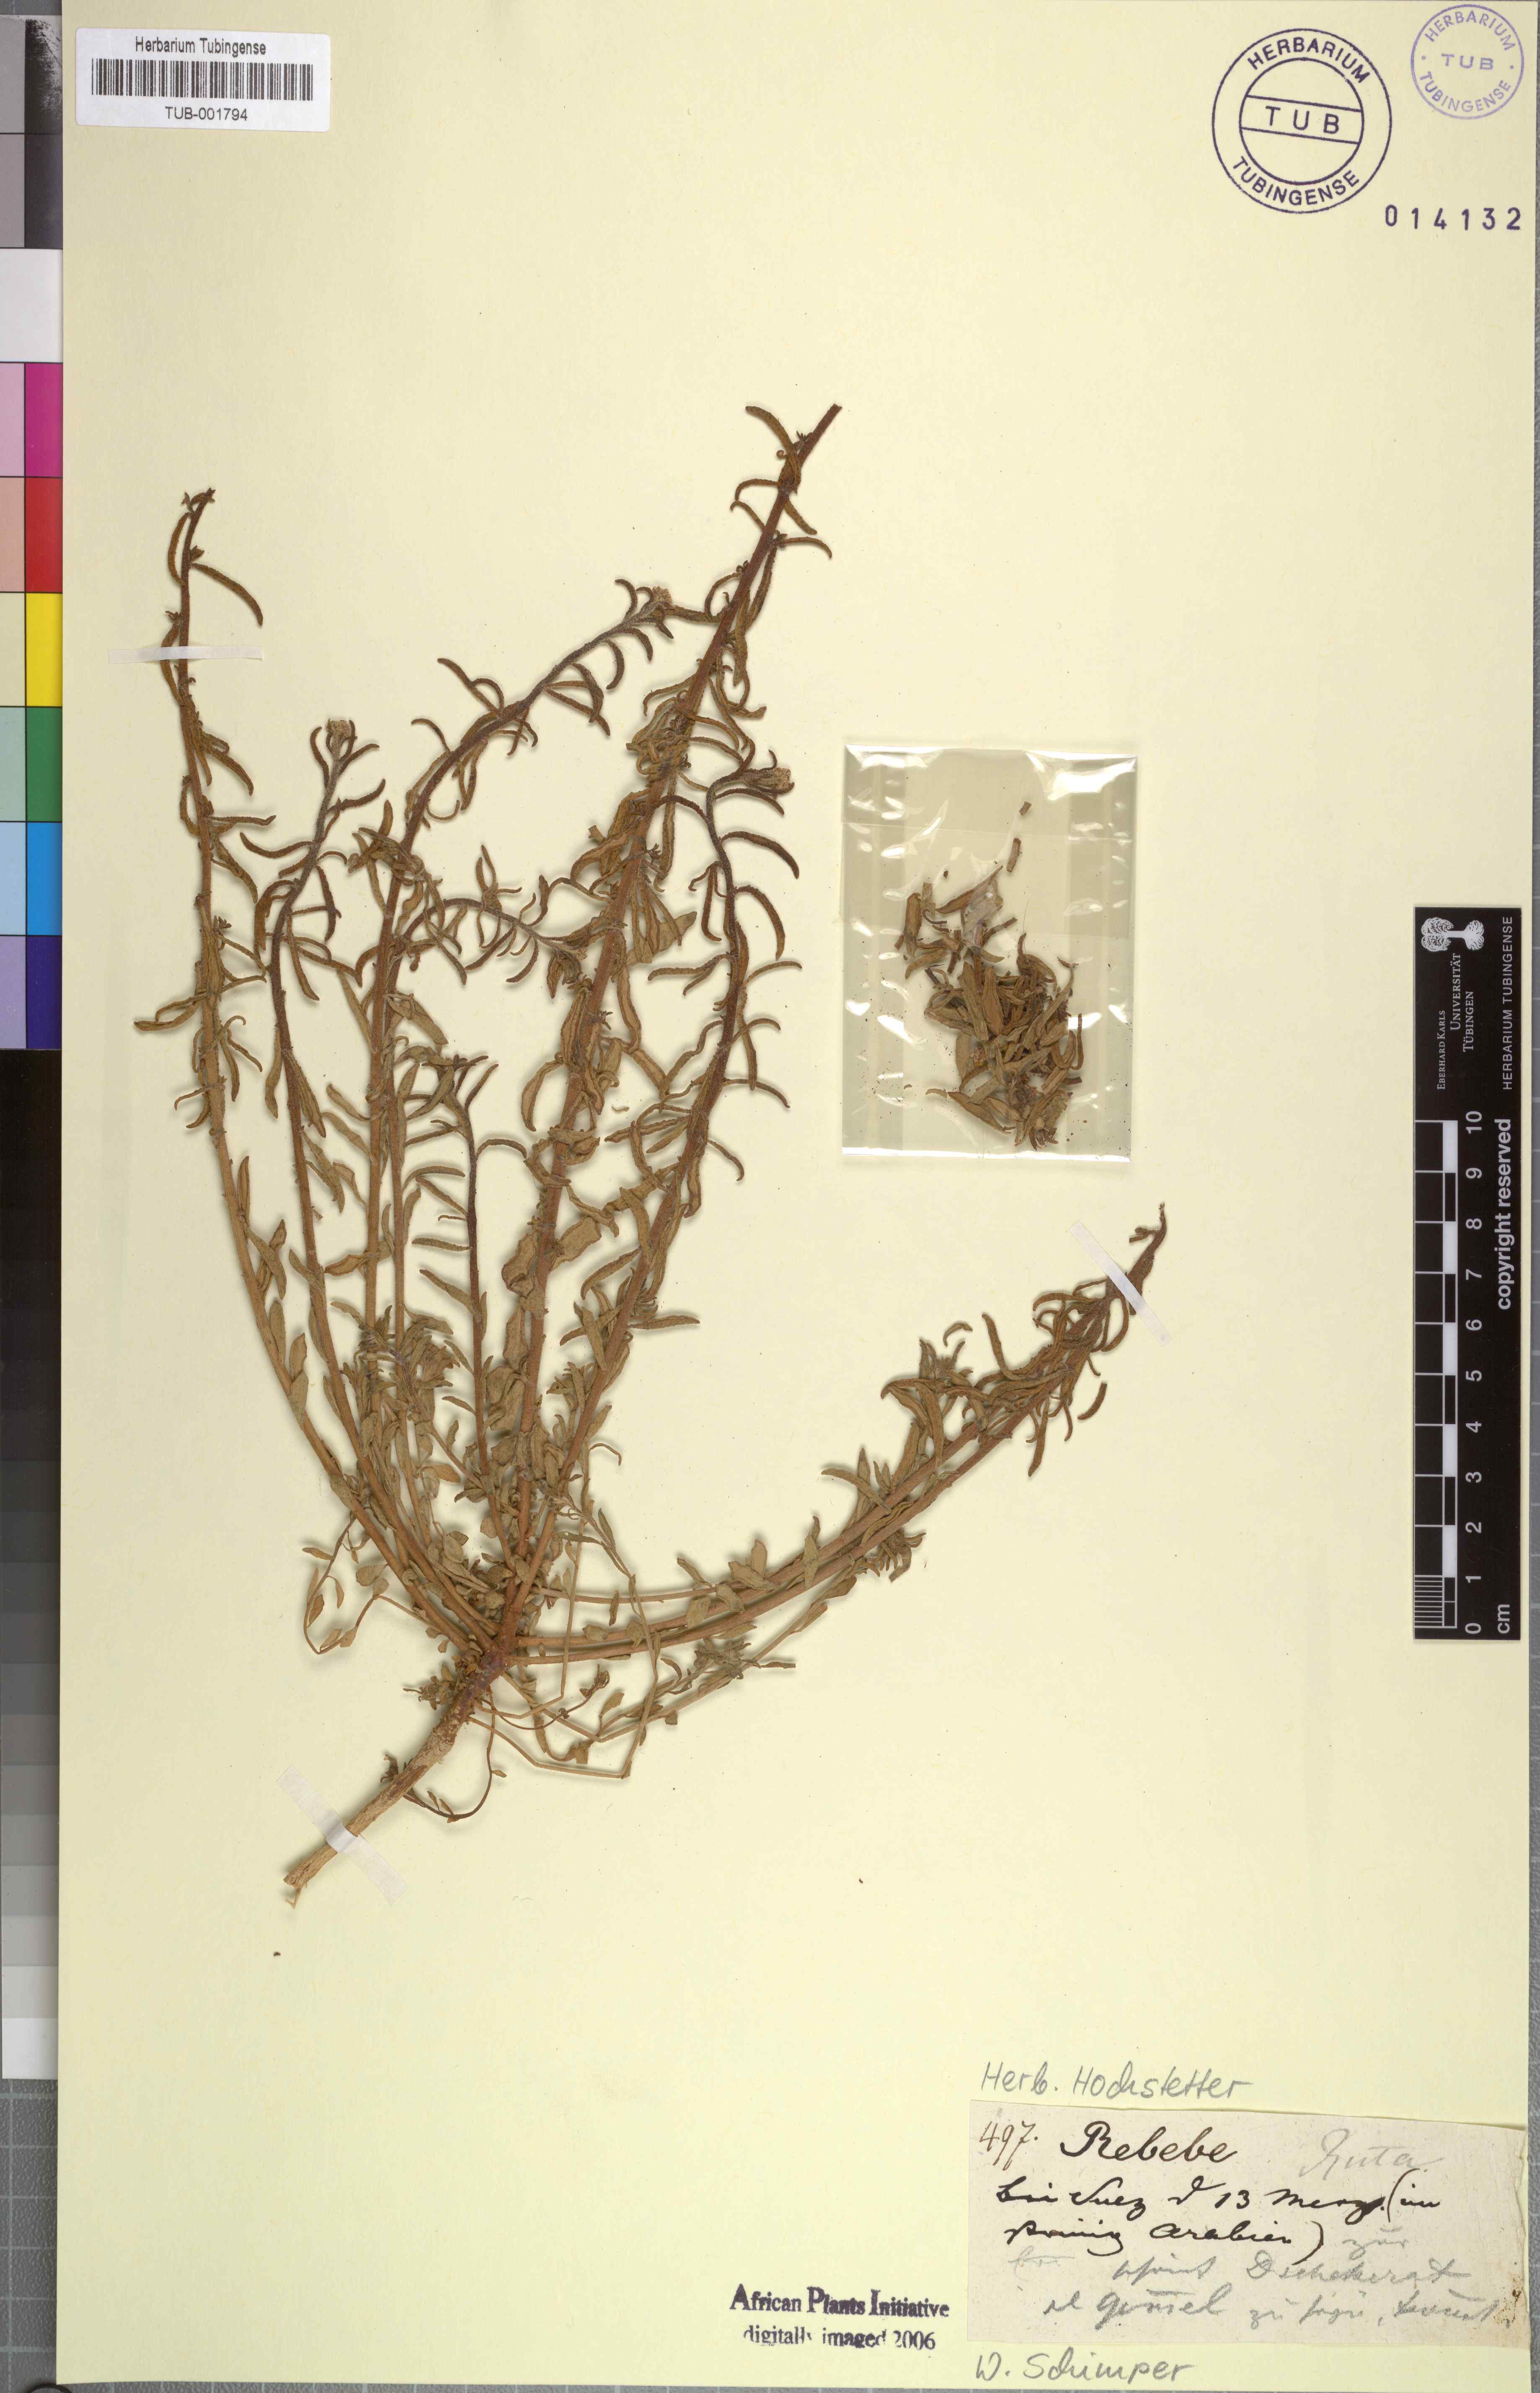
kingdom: Plantae
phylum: Tracheophyta
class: Magnoliopsida
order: Sapindales
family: Rutaceae
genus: Ruta
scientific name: Ruta
